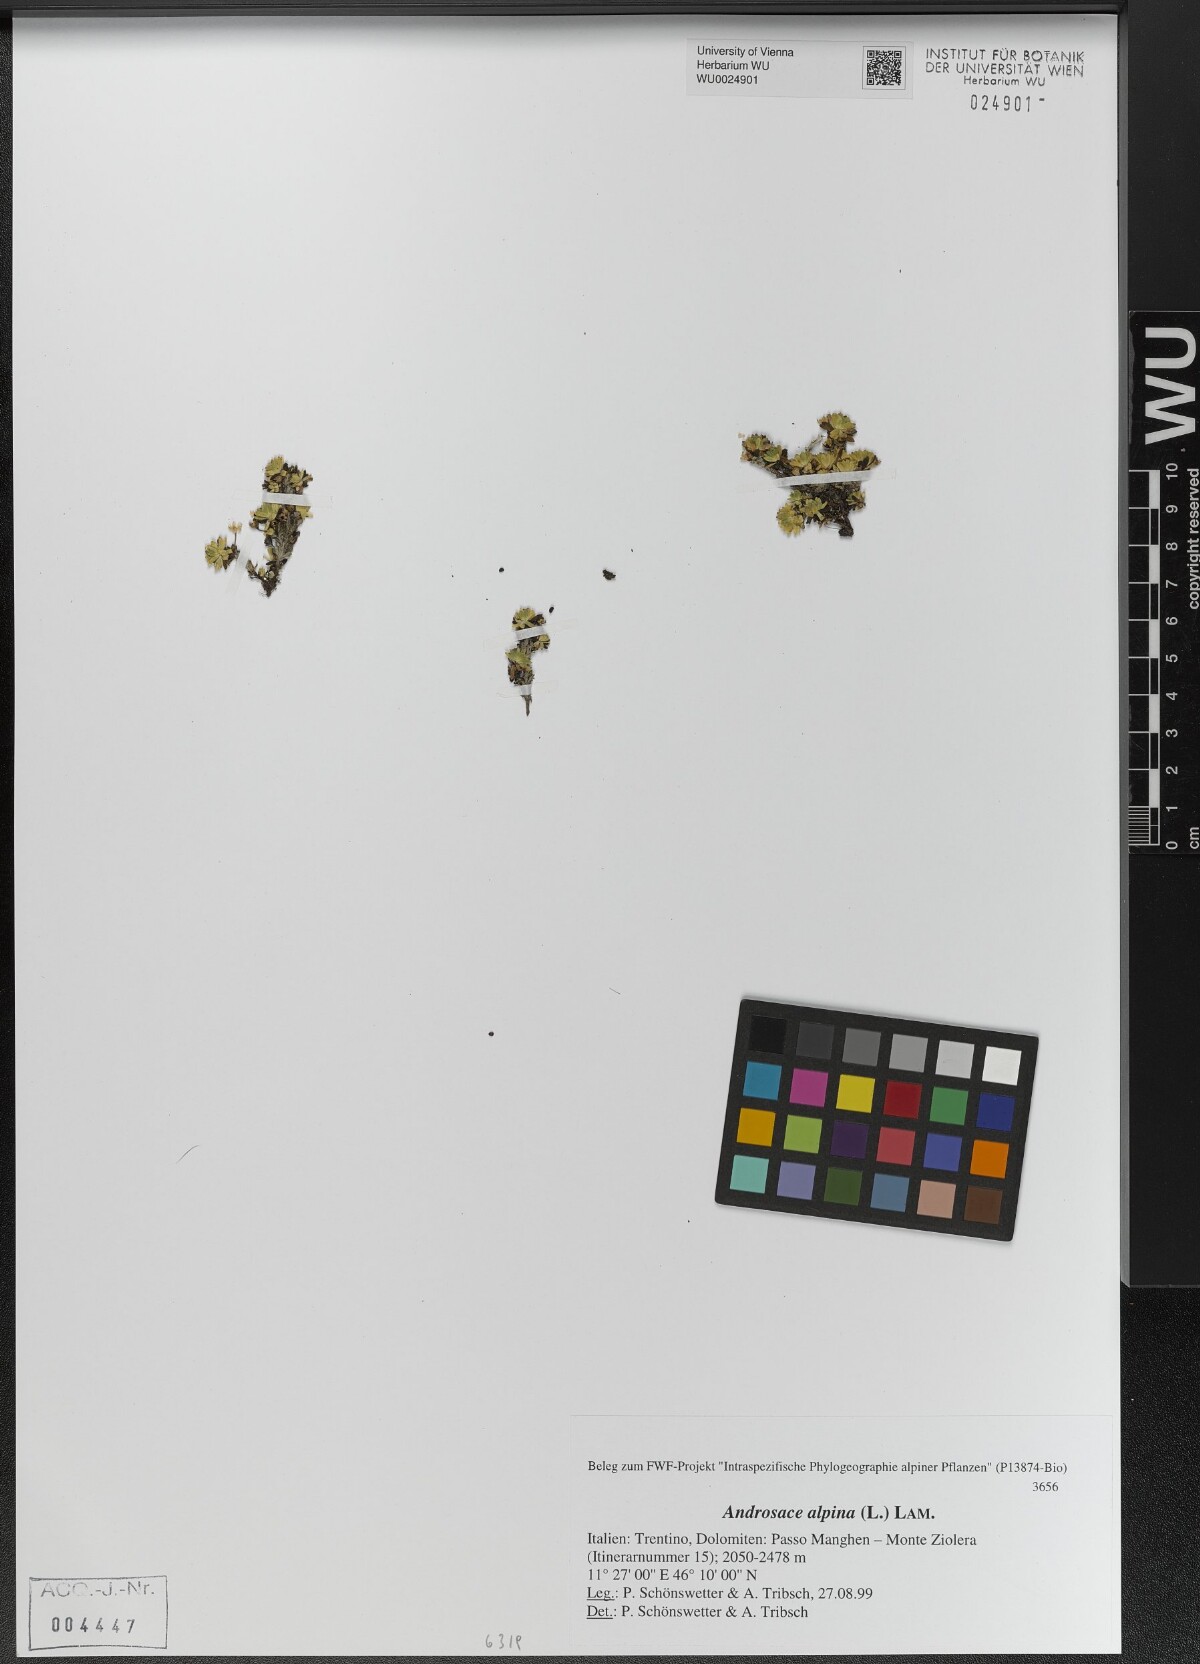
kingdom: Plantae
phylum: Tracheophyta
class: Magnoliopsida
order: Ericales
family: Primulaceae
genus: Androsace
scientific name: Androsace alpina
